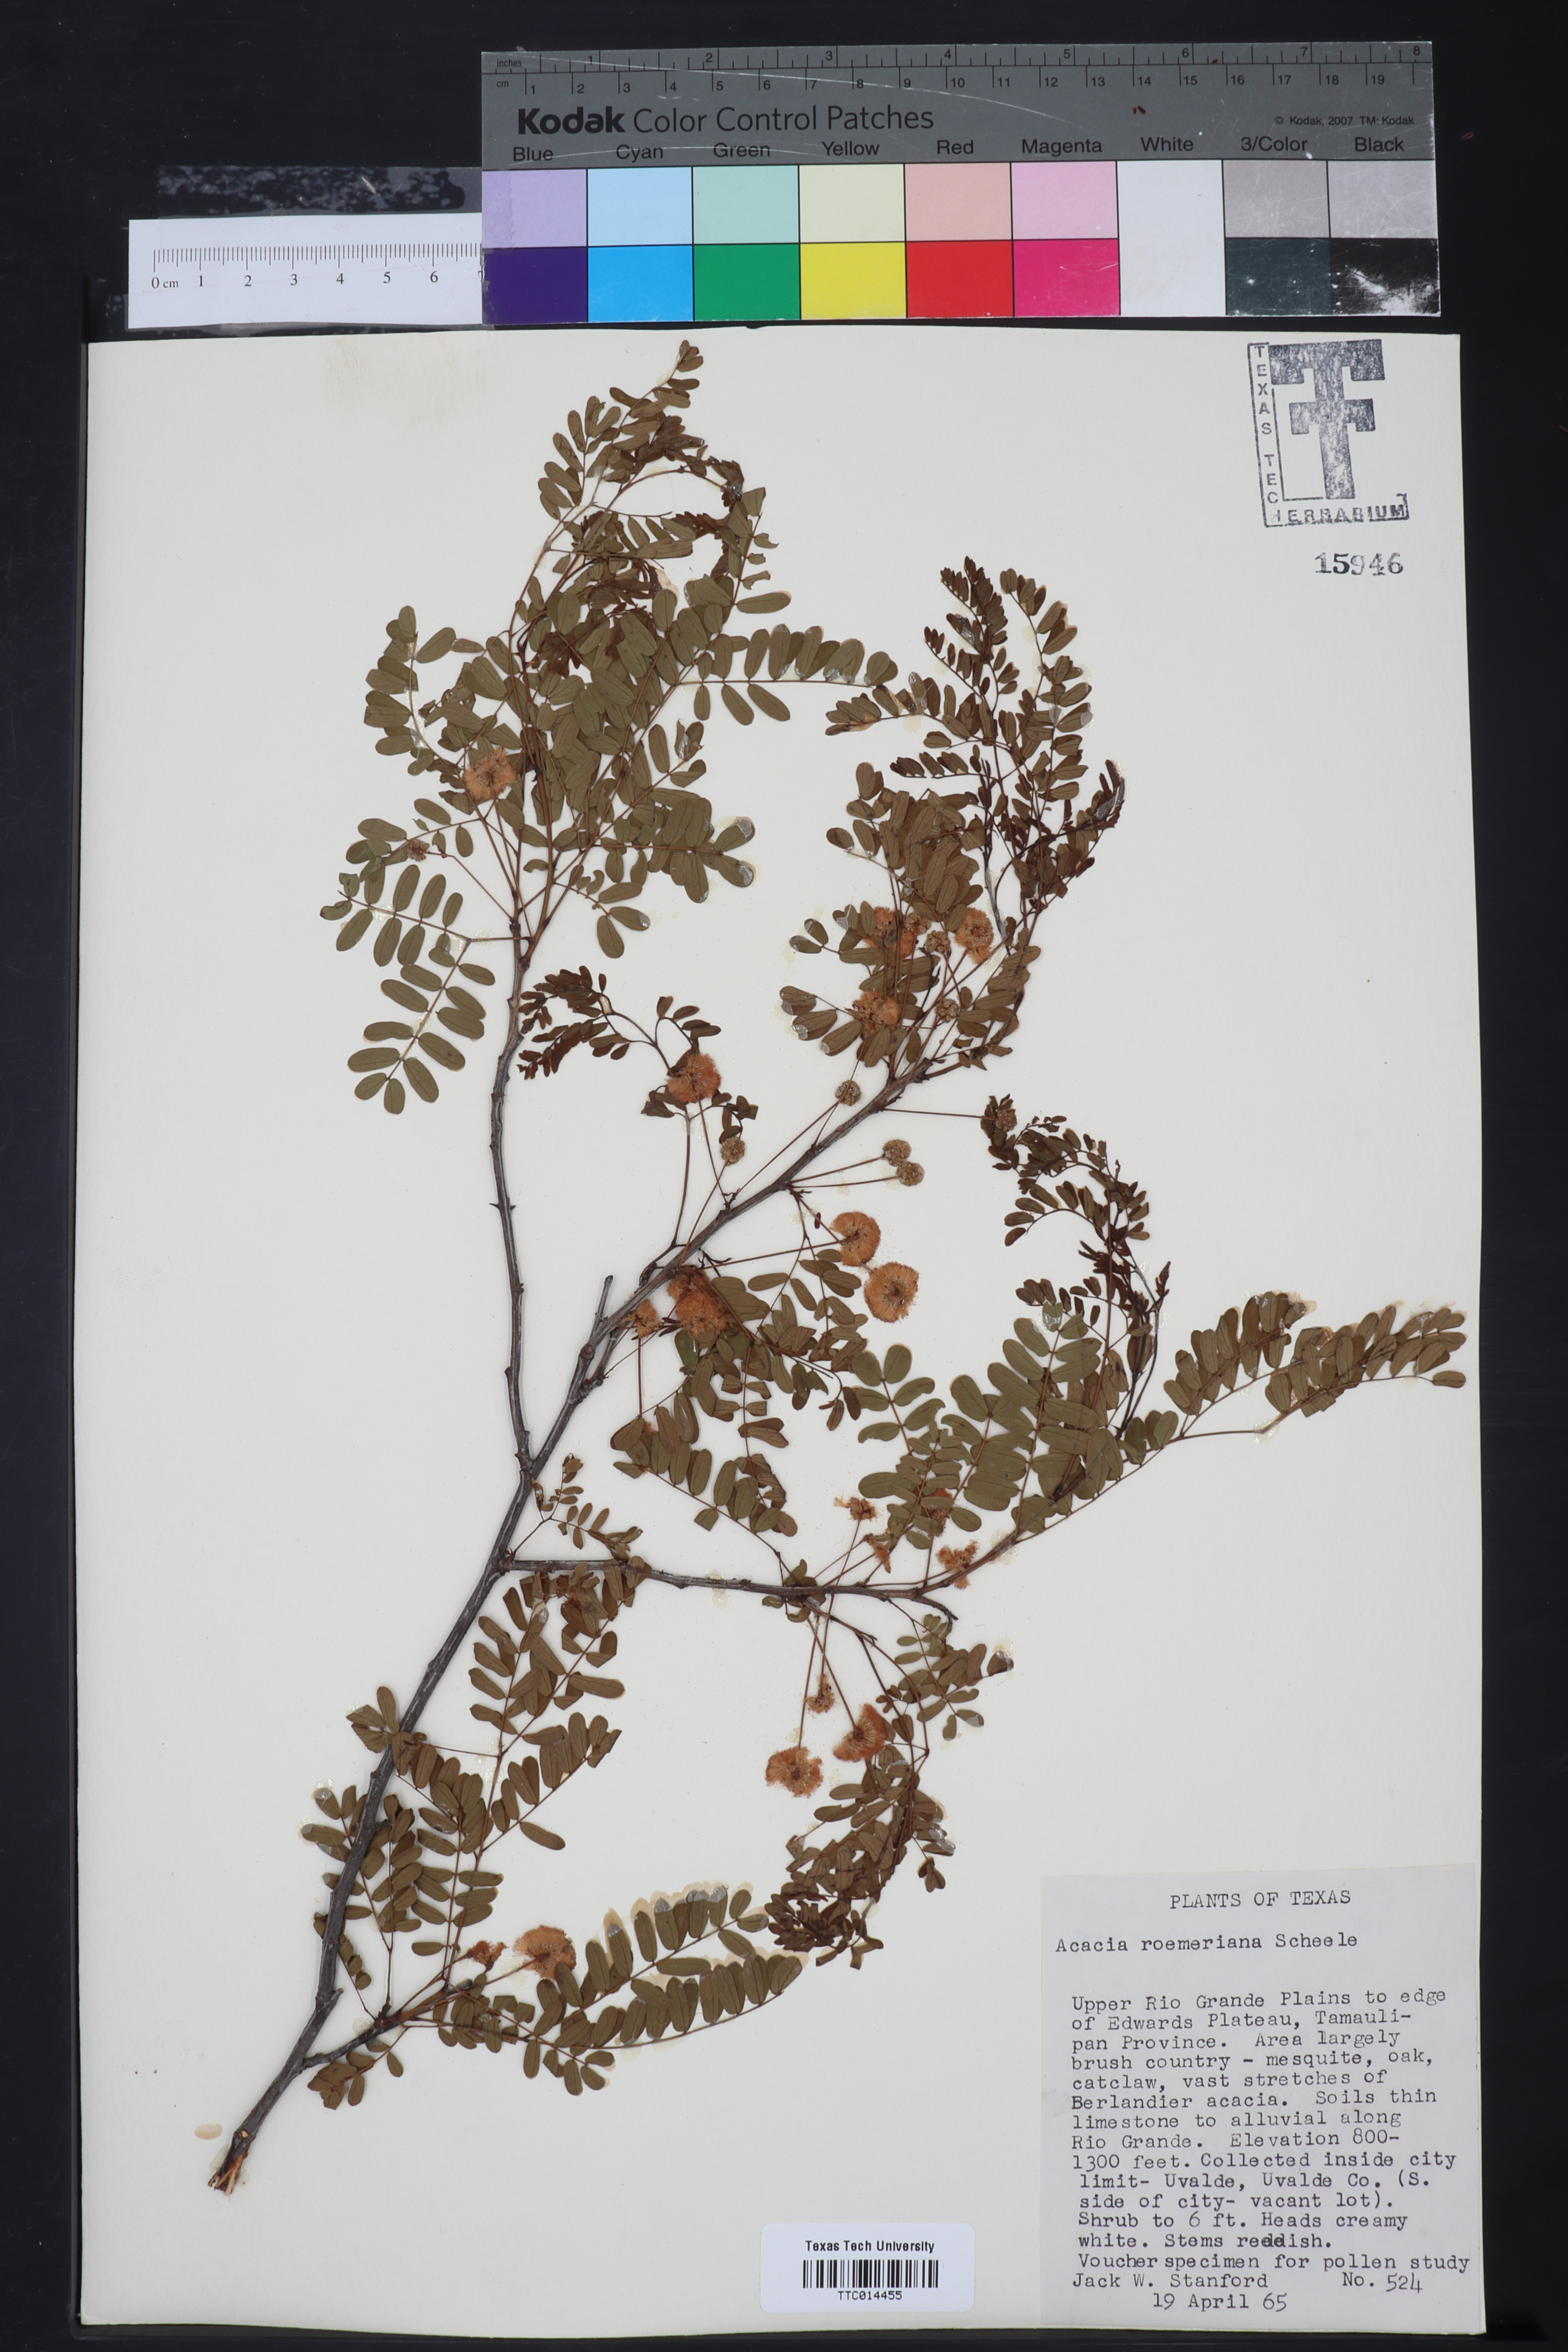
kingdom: Plantae
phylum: Tracheophyta
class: Magnoliopsida
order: Fabales
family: Fabaceae
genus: Senegalia
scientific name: Senegalia roemeriana
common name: Roemer's acacia
